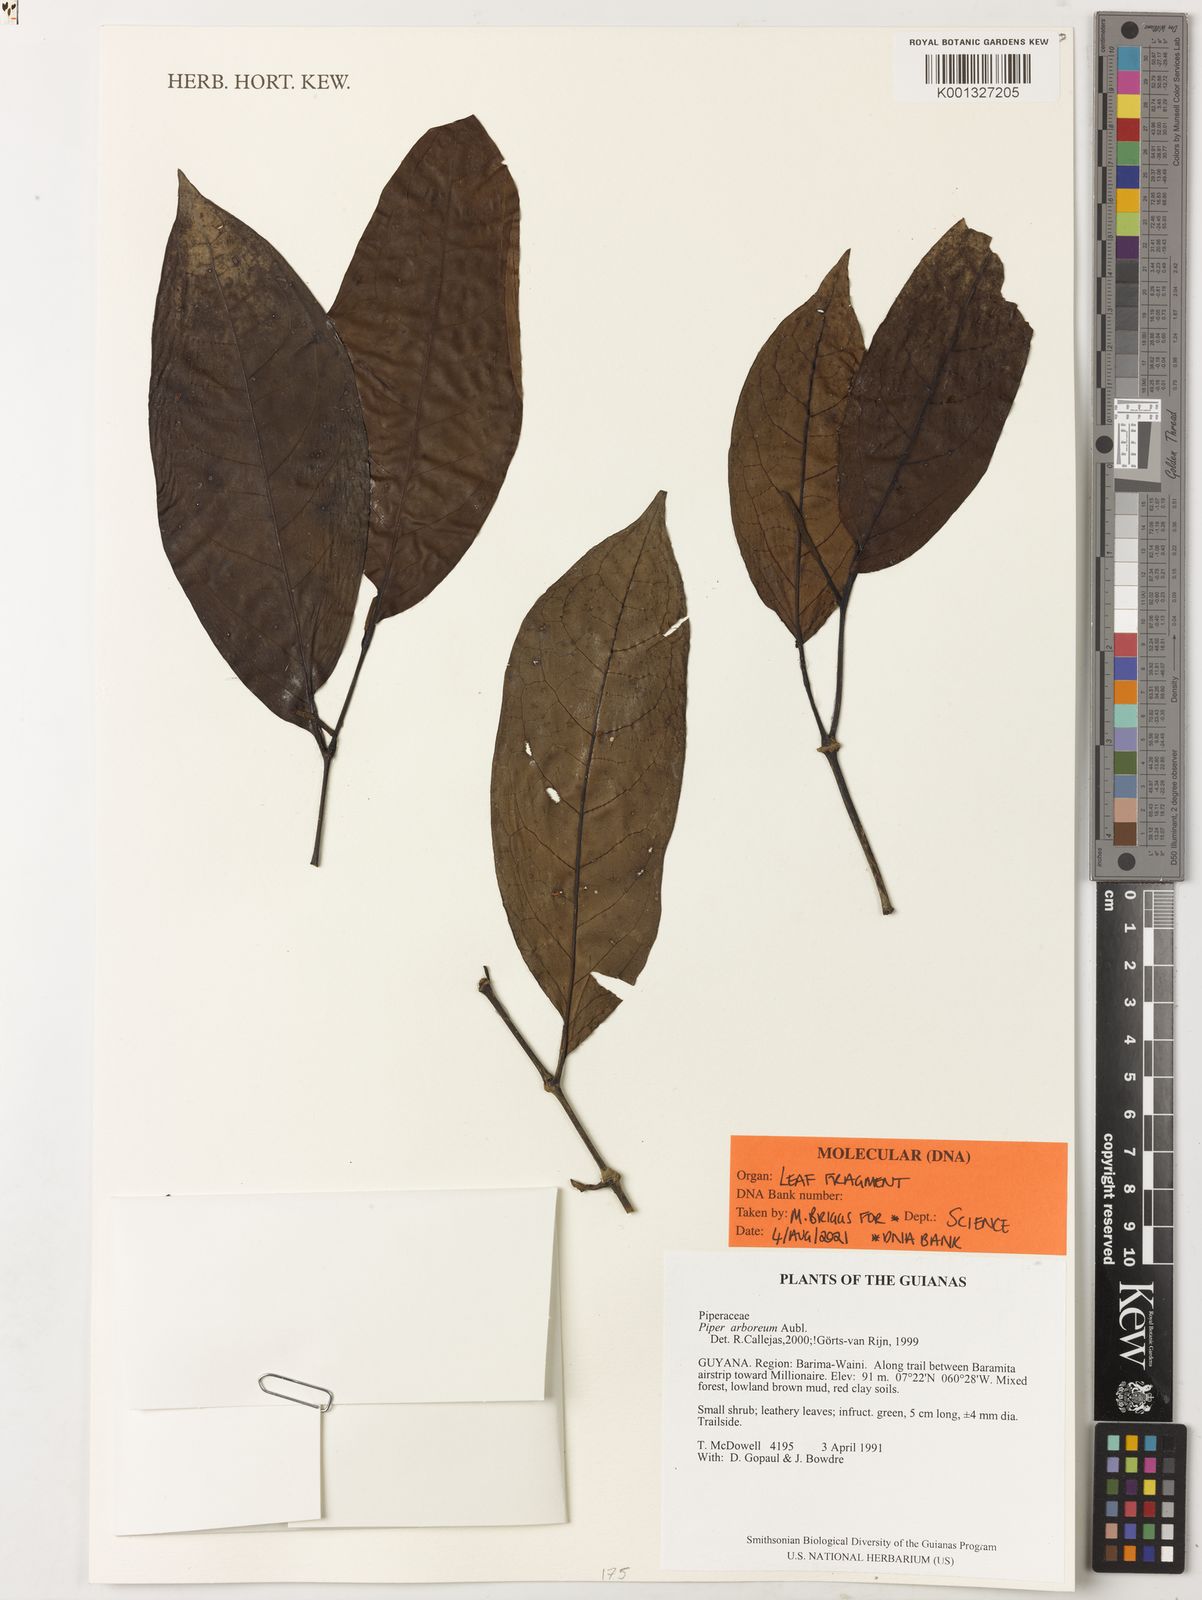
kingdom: Plantae
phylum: Tracheophyta
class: Magnoliopsida
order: Piperales
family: Piperaceae
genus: Piper
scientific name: Piper arboreum
